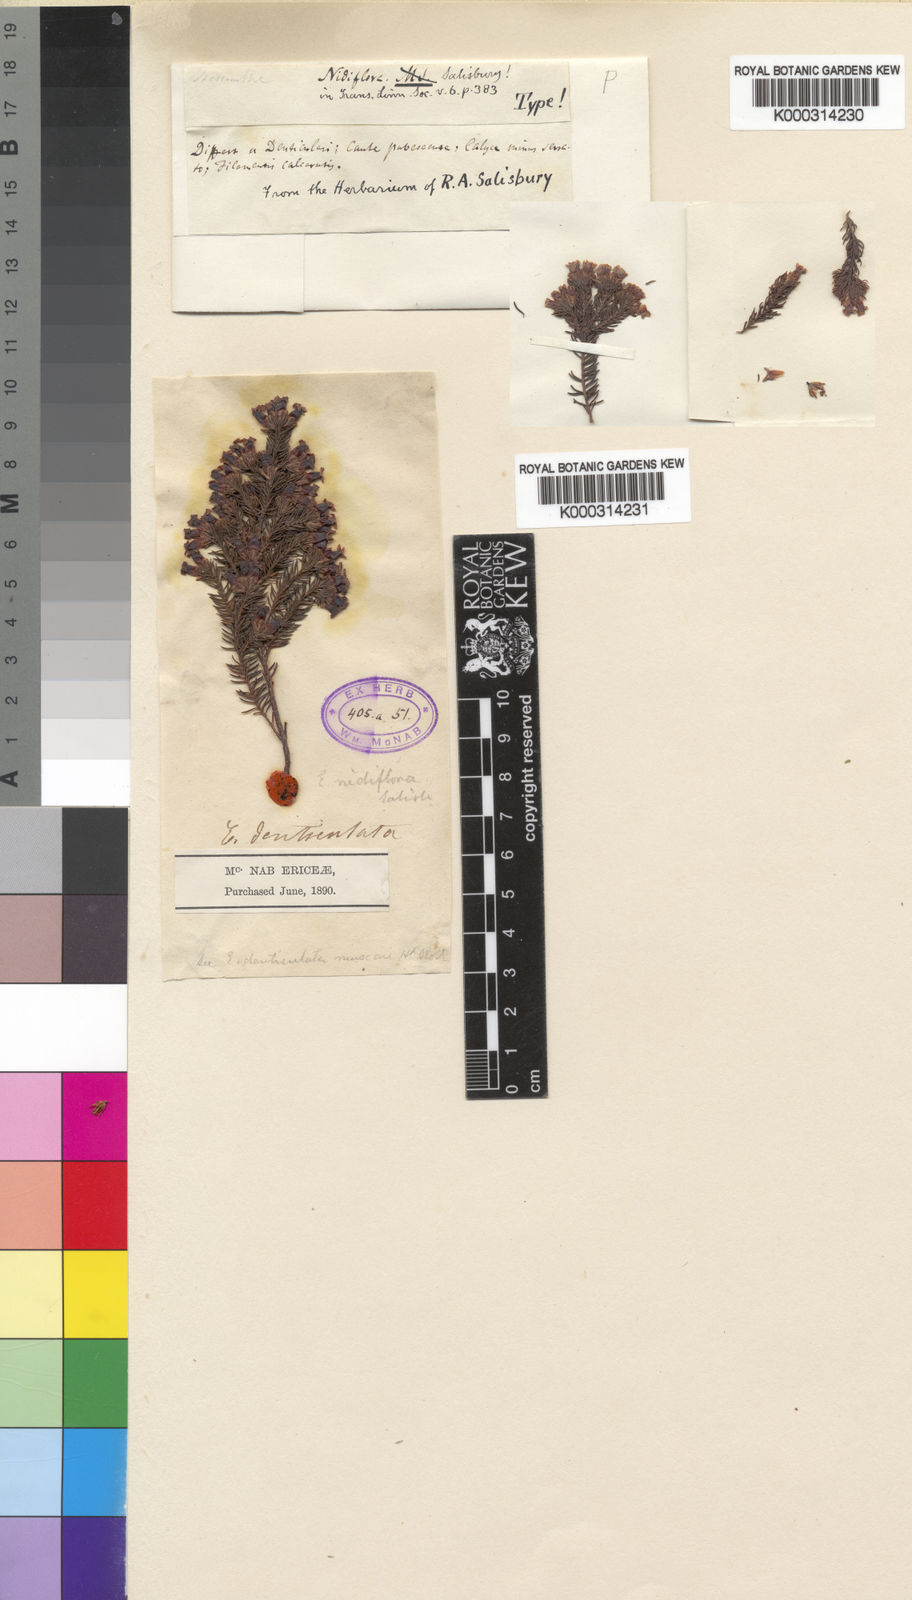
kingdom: Plantae
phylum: Tracheophyta
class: Magnoliopsida
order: Ericales
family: Ericaceae
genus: Erica
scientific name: Erica daphniflora
